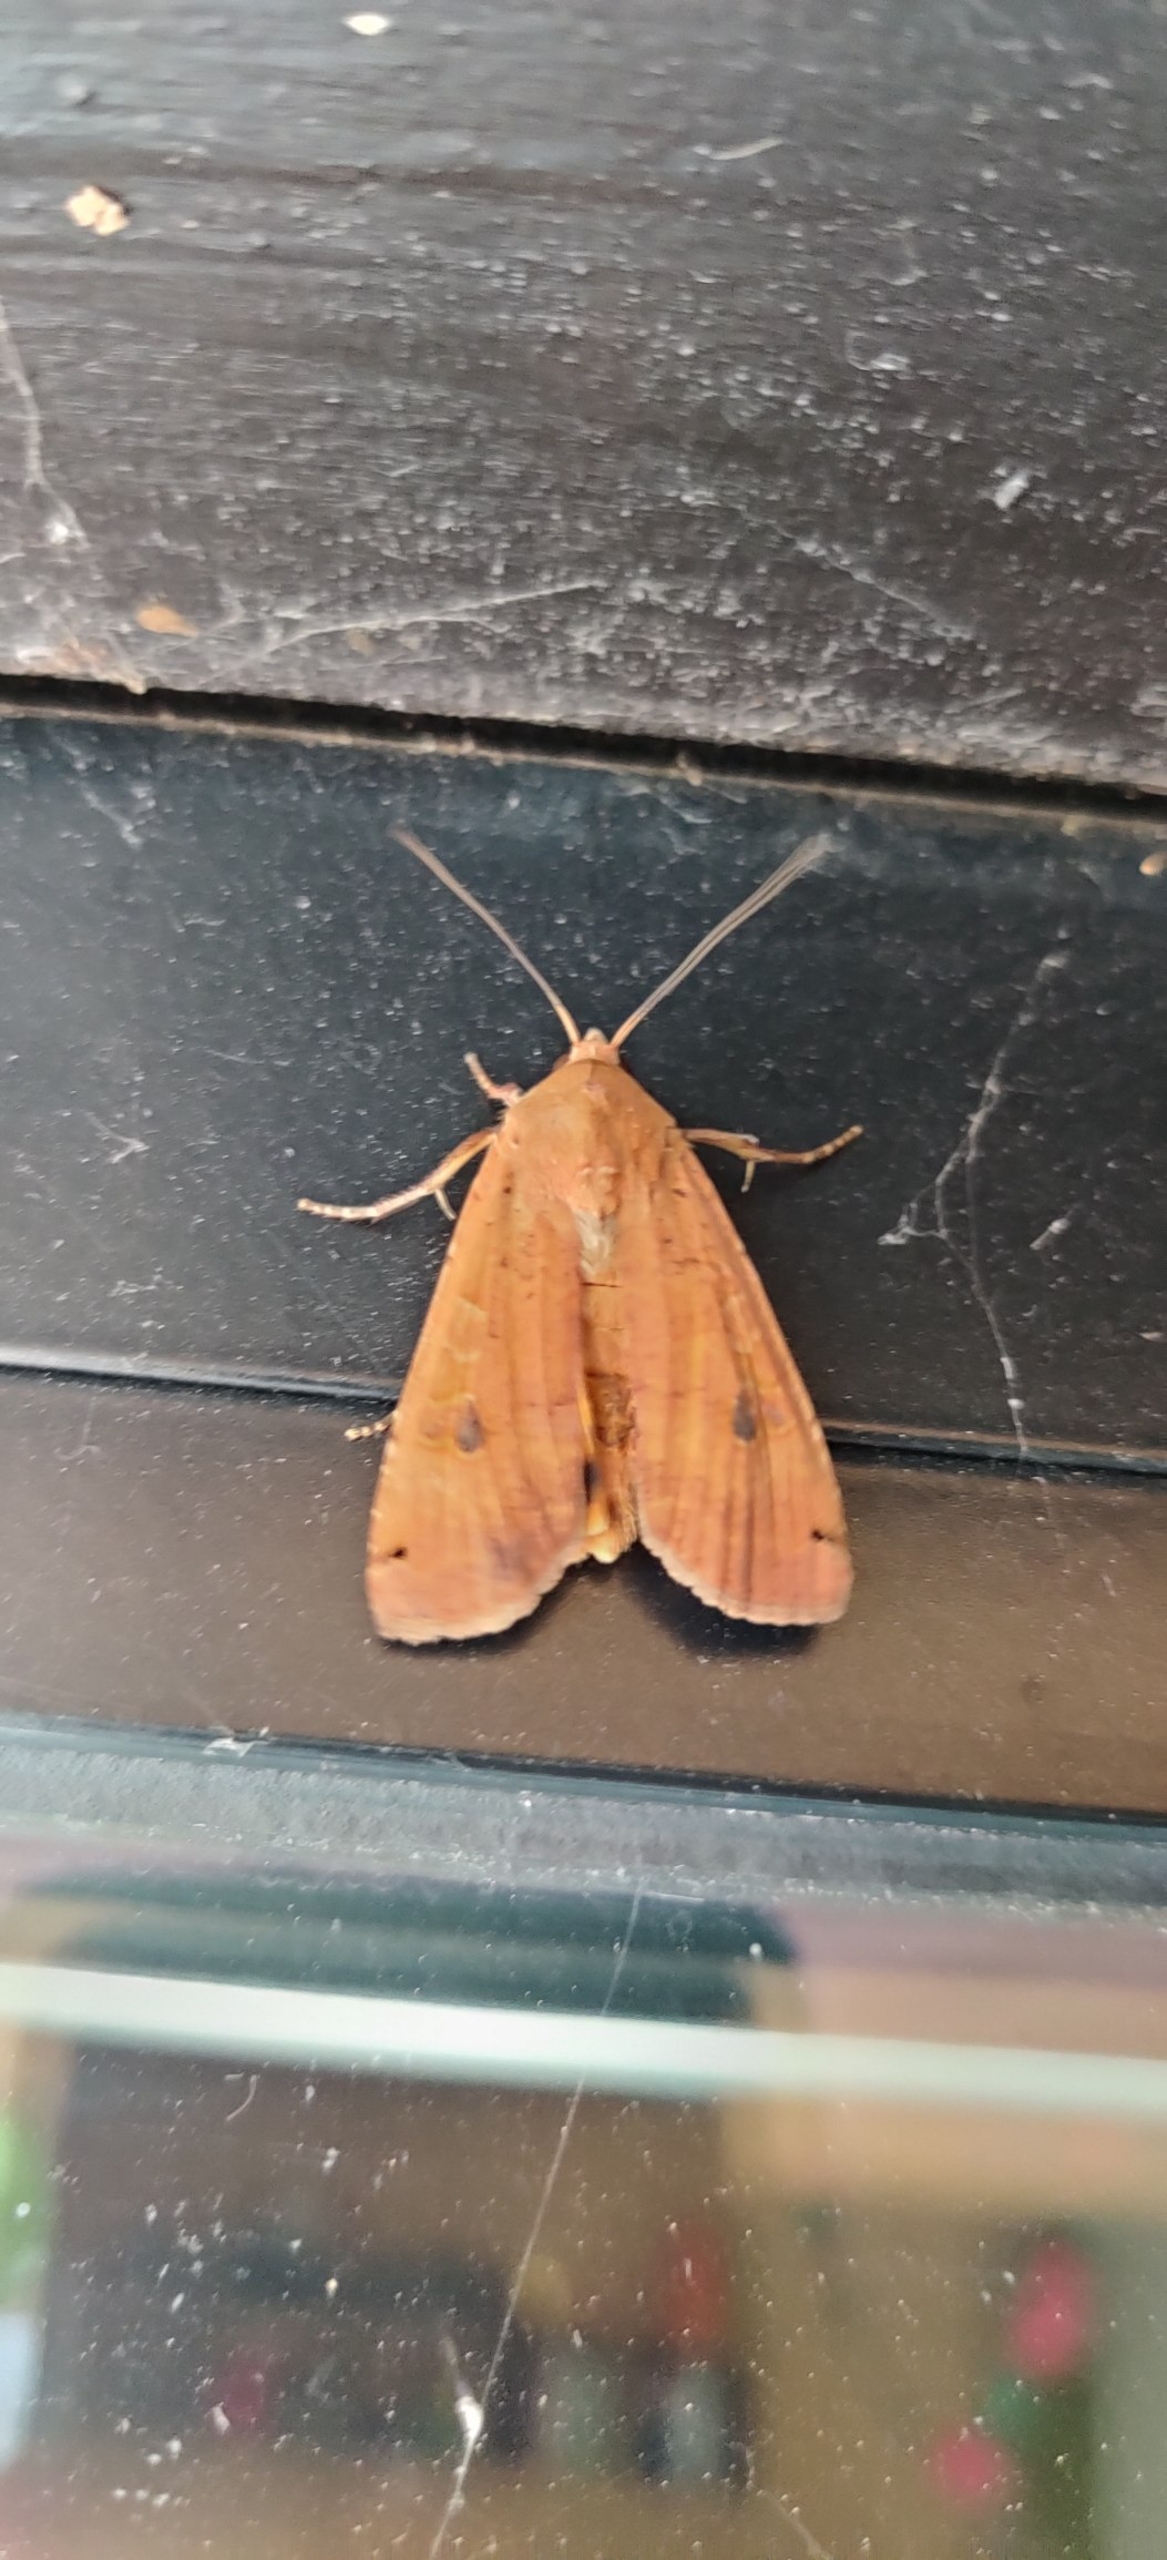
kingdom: Animalia
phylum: Arthropoda
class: Insecta
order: Lepidoptera
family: Noctuidae
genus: Noctua
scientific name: Noctua pronuba
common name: Stor smutugle
